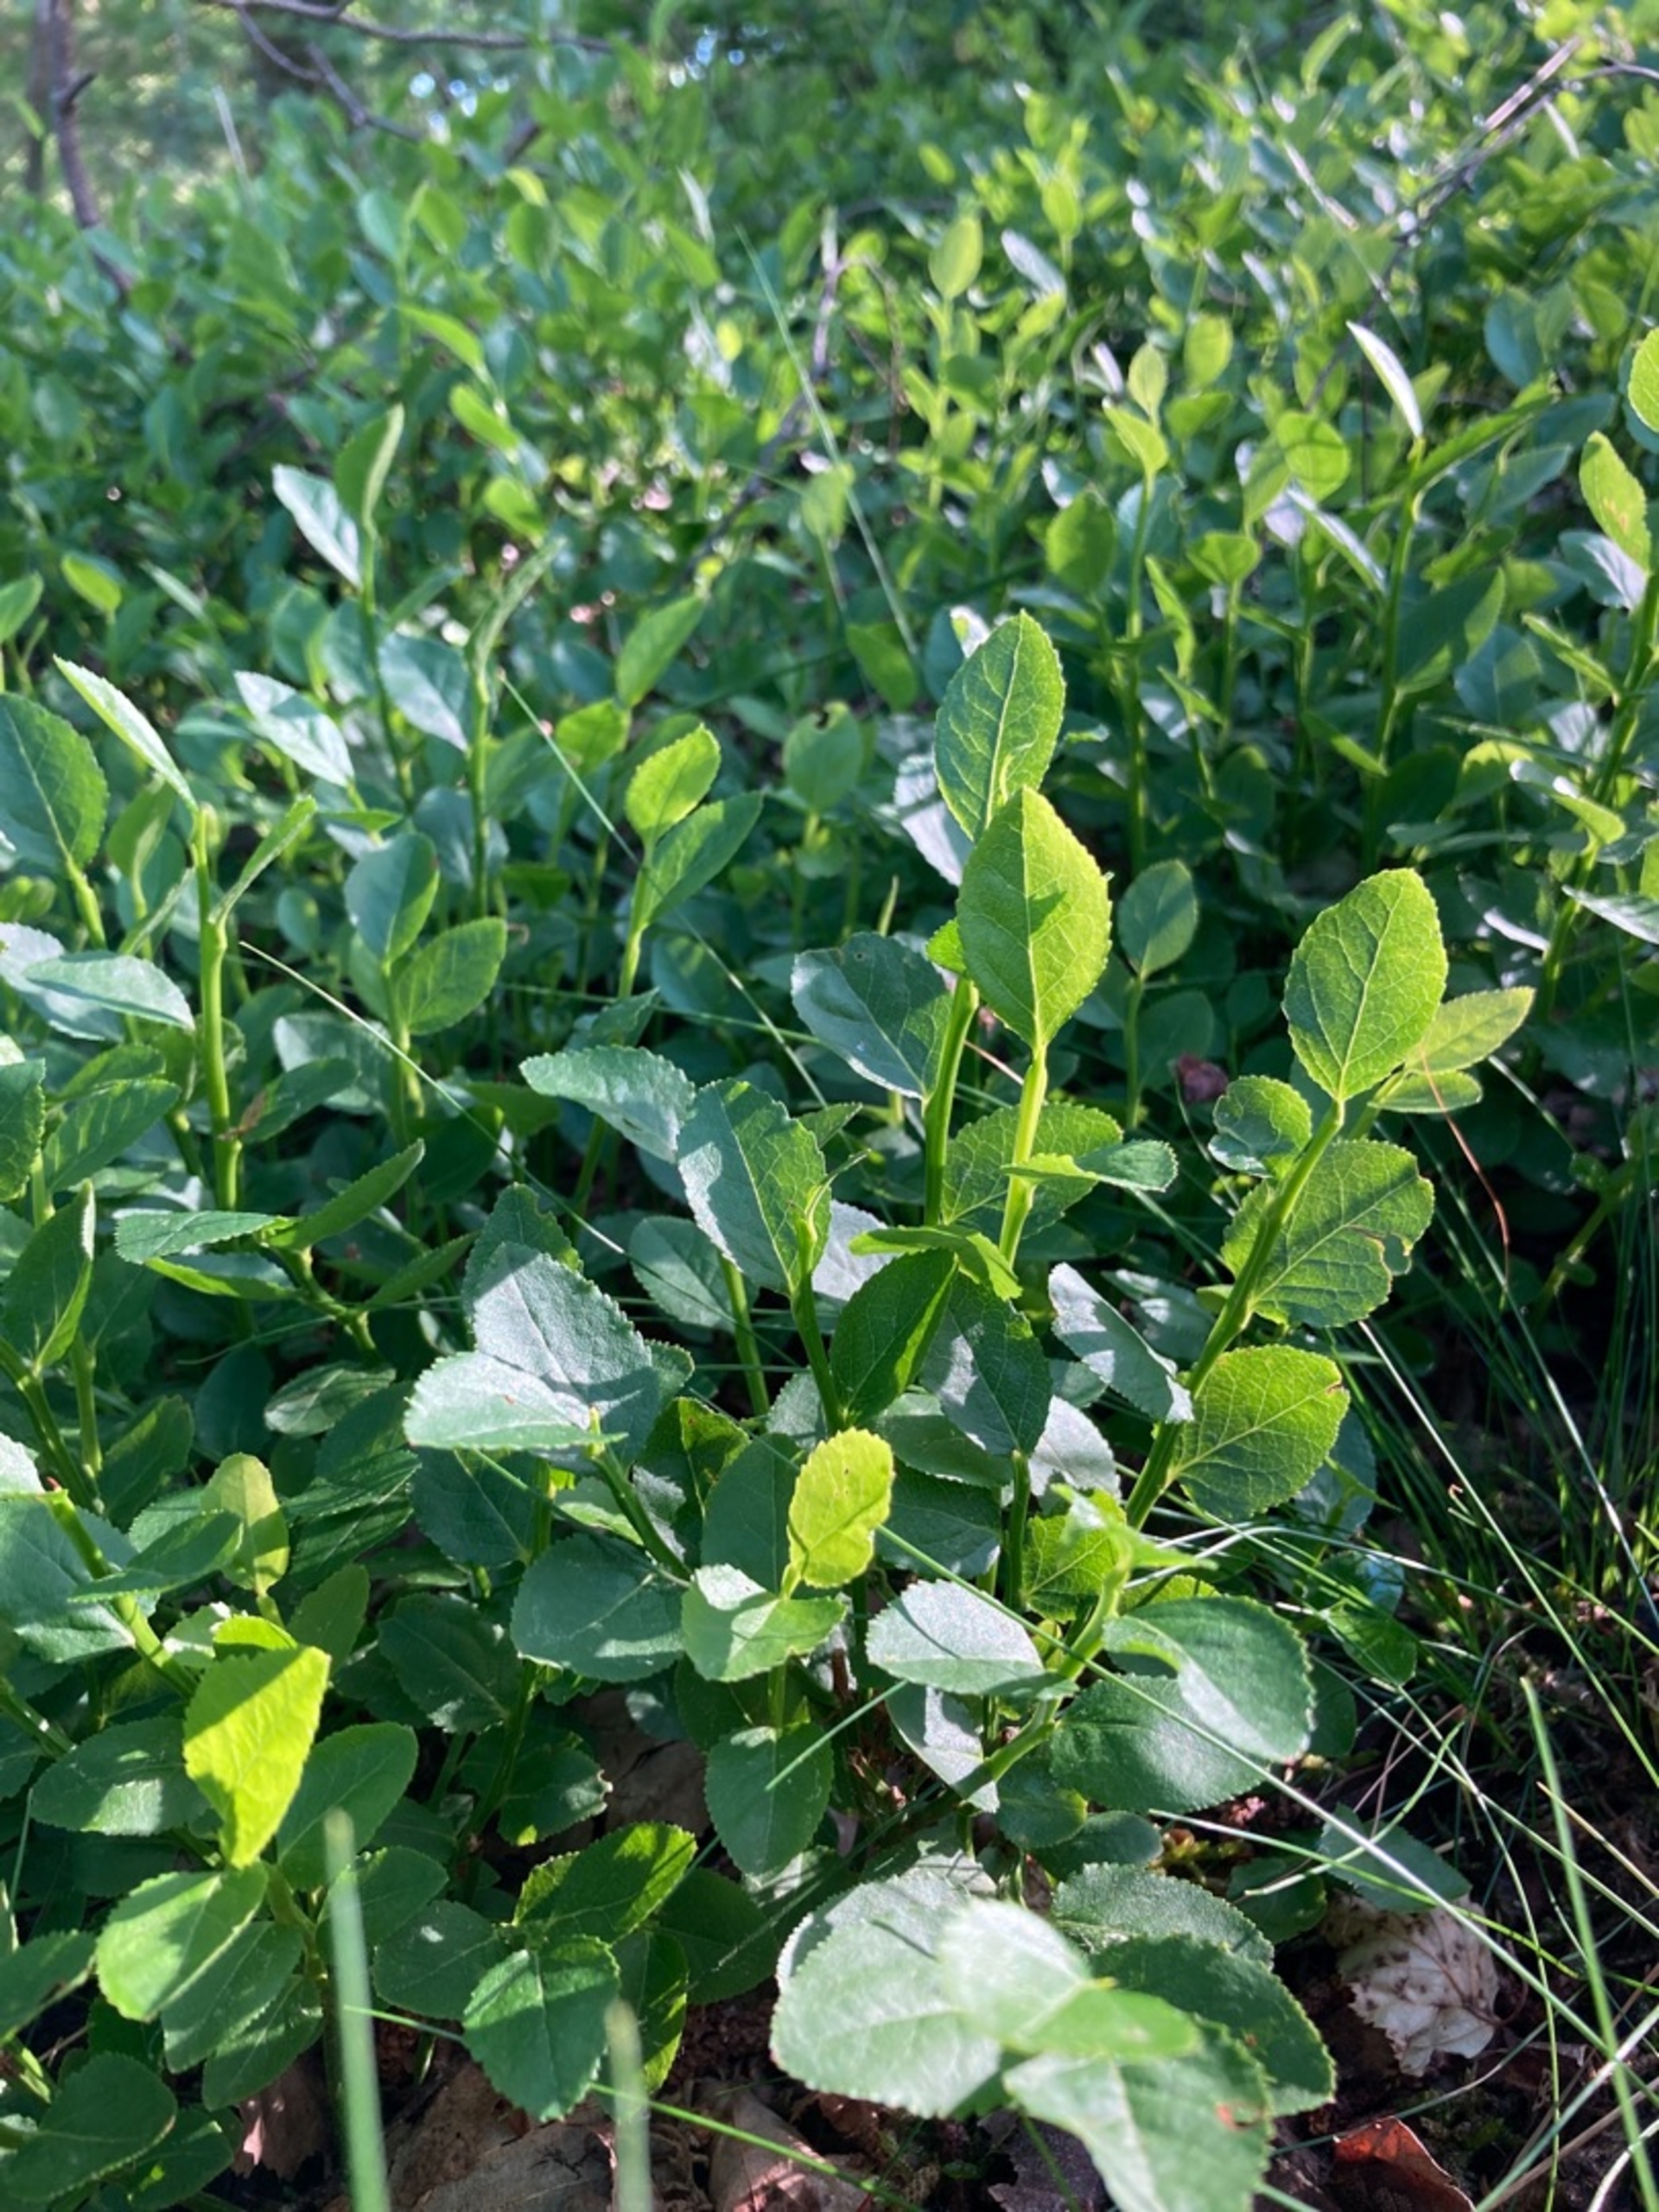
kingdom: Plantae
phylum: Tracheophyta
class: Magnoliopsida
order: Ericales
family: Ericaceae
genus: Vaccinium
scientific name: Vaccinium myrtillus
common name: Blåbær
